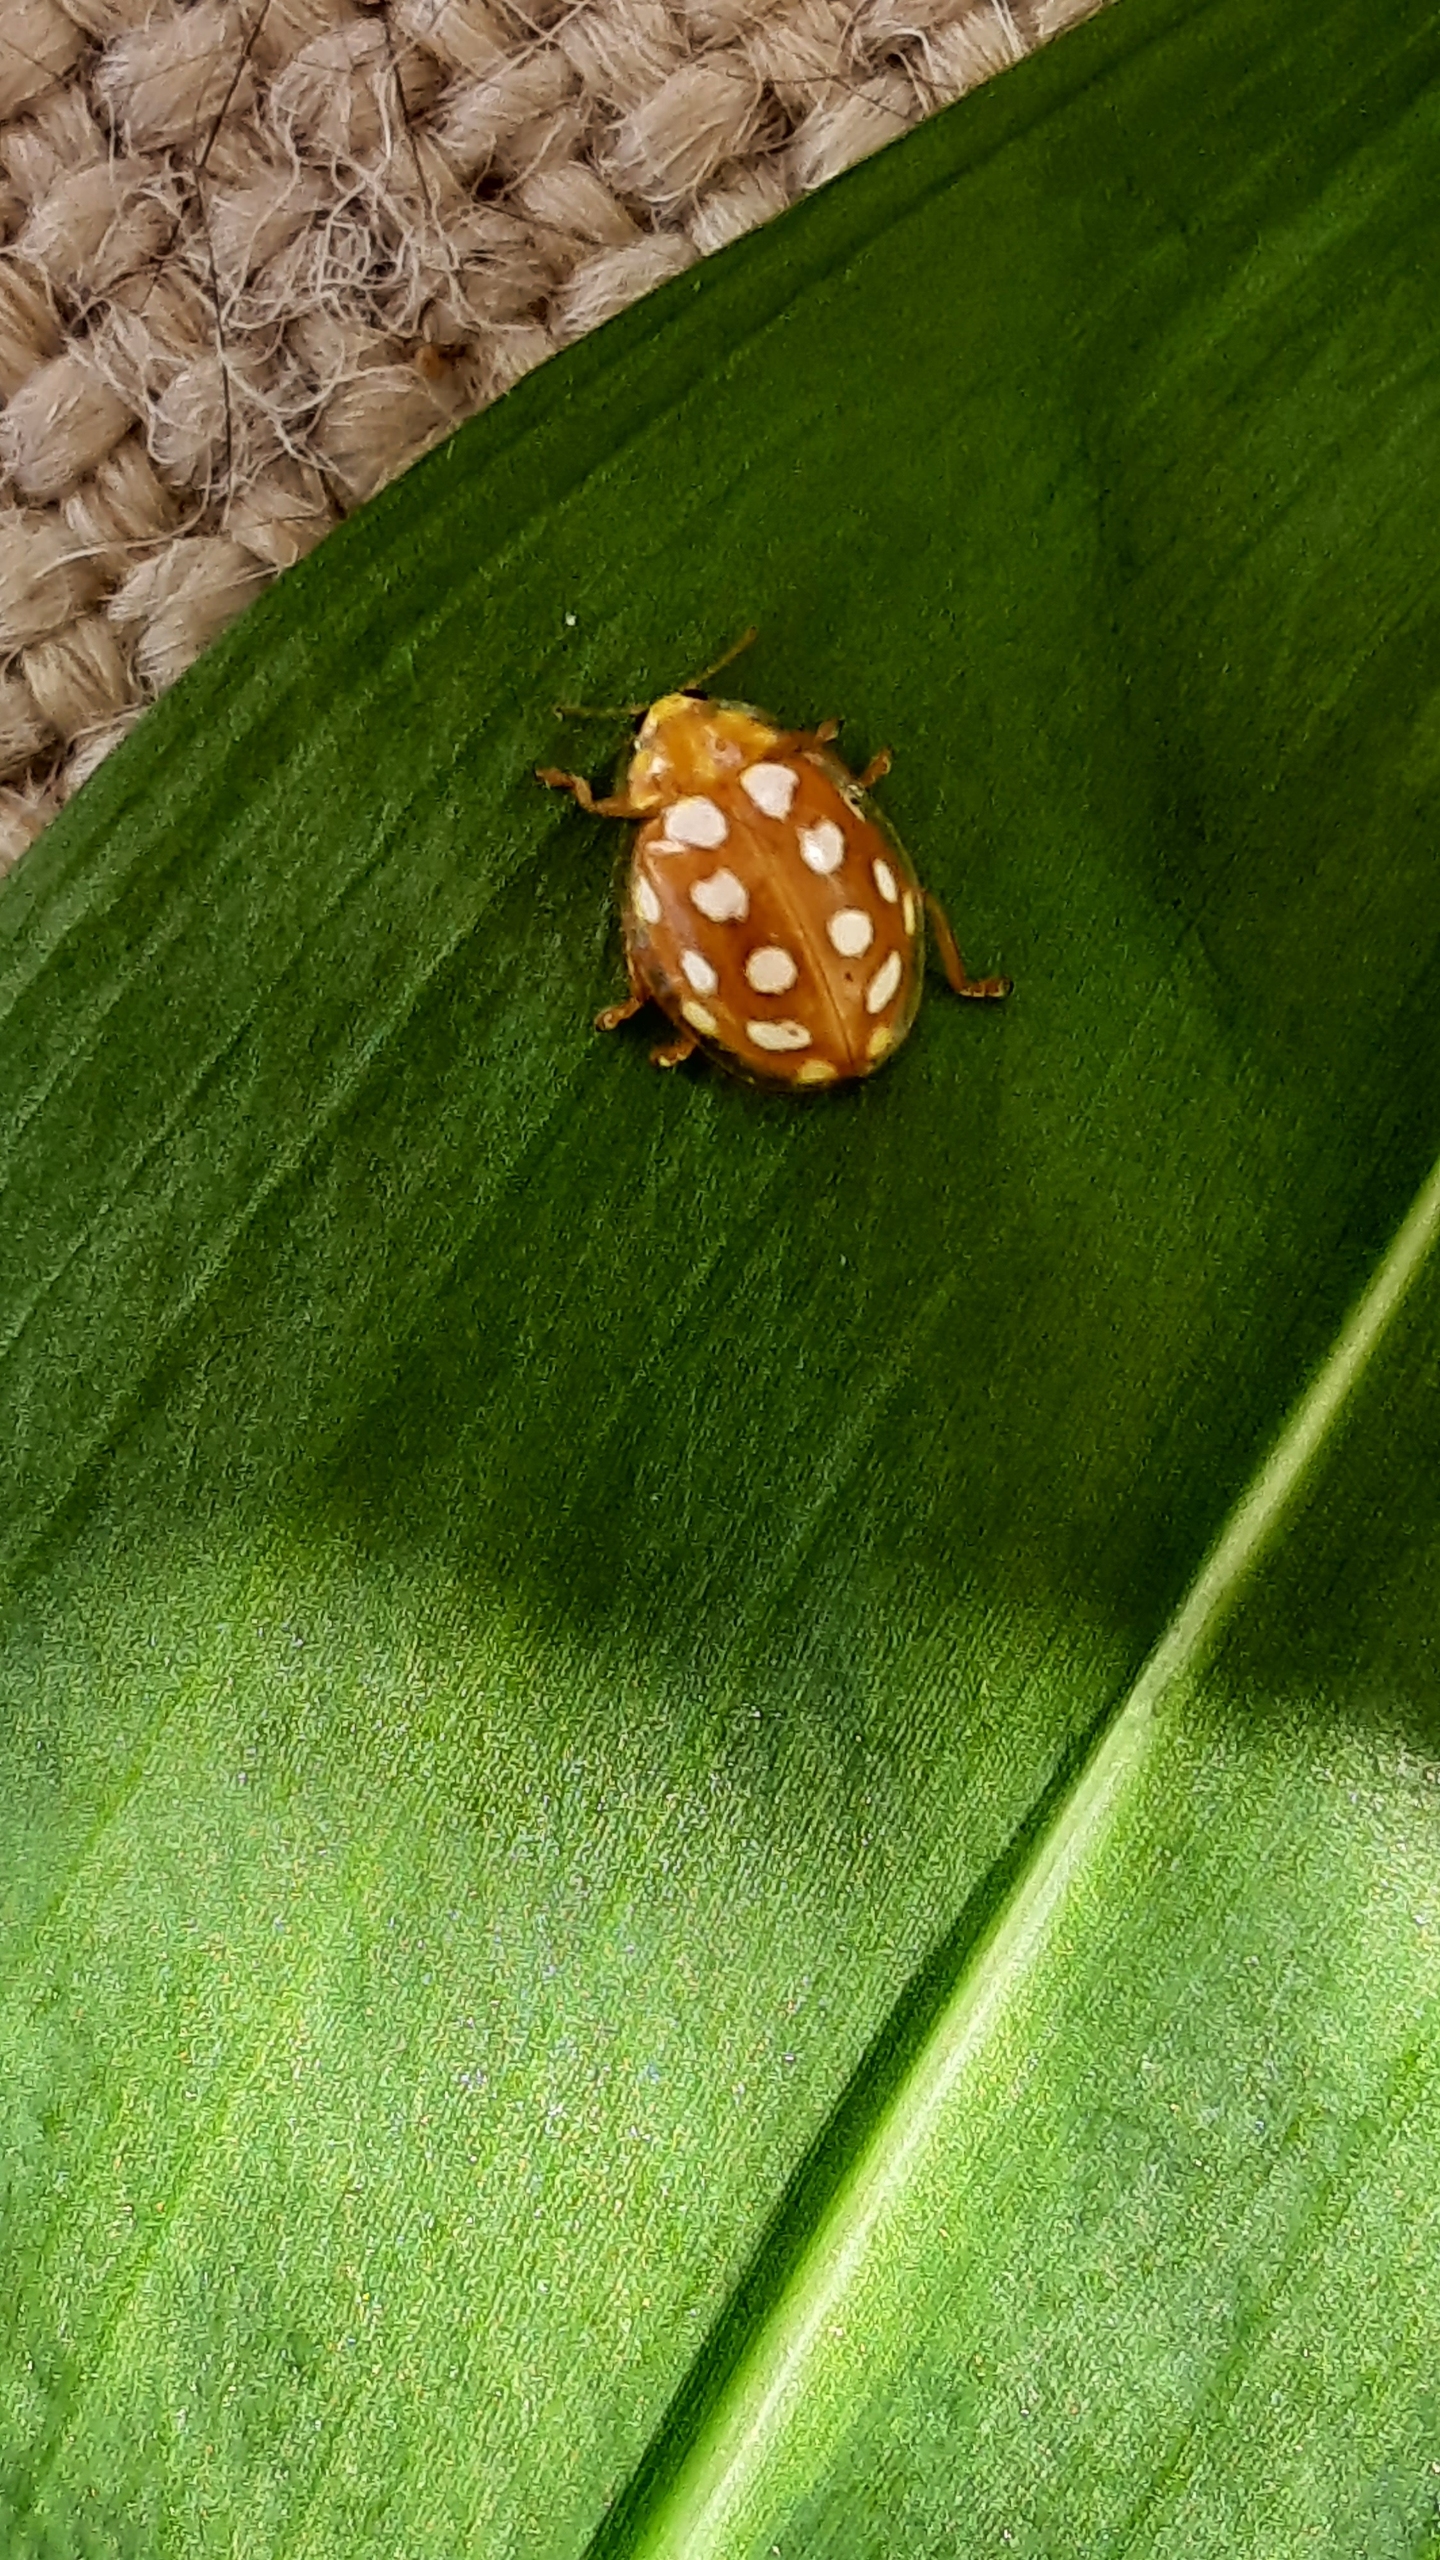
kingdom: Animalia
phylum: Arthropoda
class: Insecta
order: Coleoptera
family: Coccinellidae
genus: Halyzia
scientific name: Halyzia sedecimguttata
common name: Sekstenplettet mariehøne
